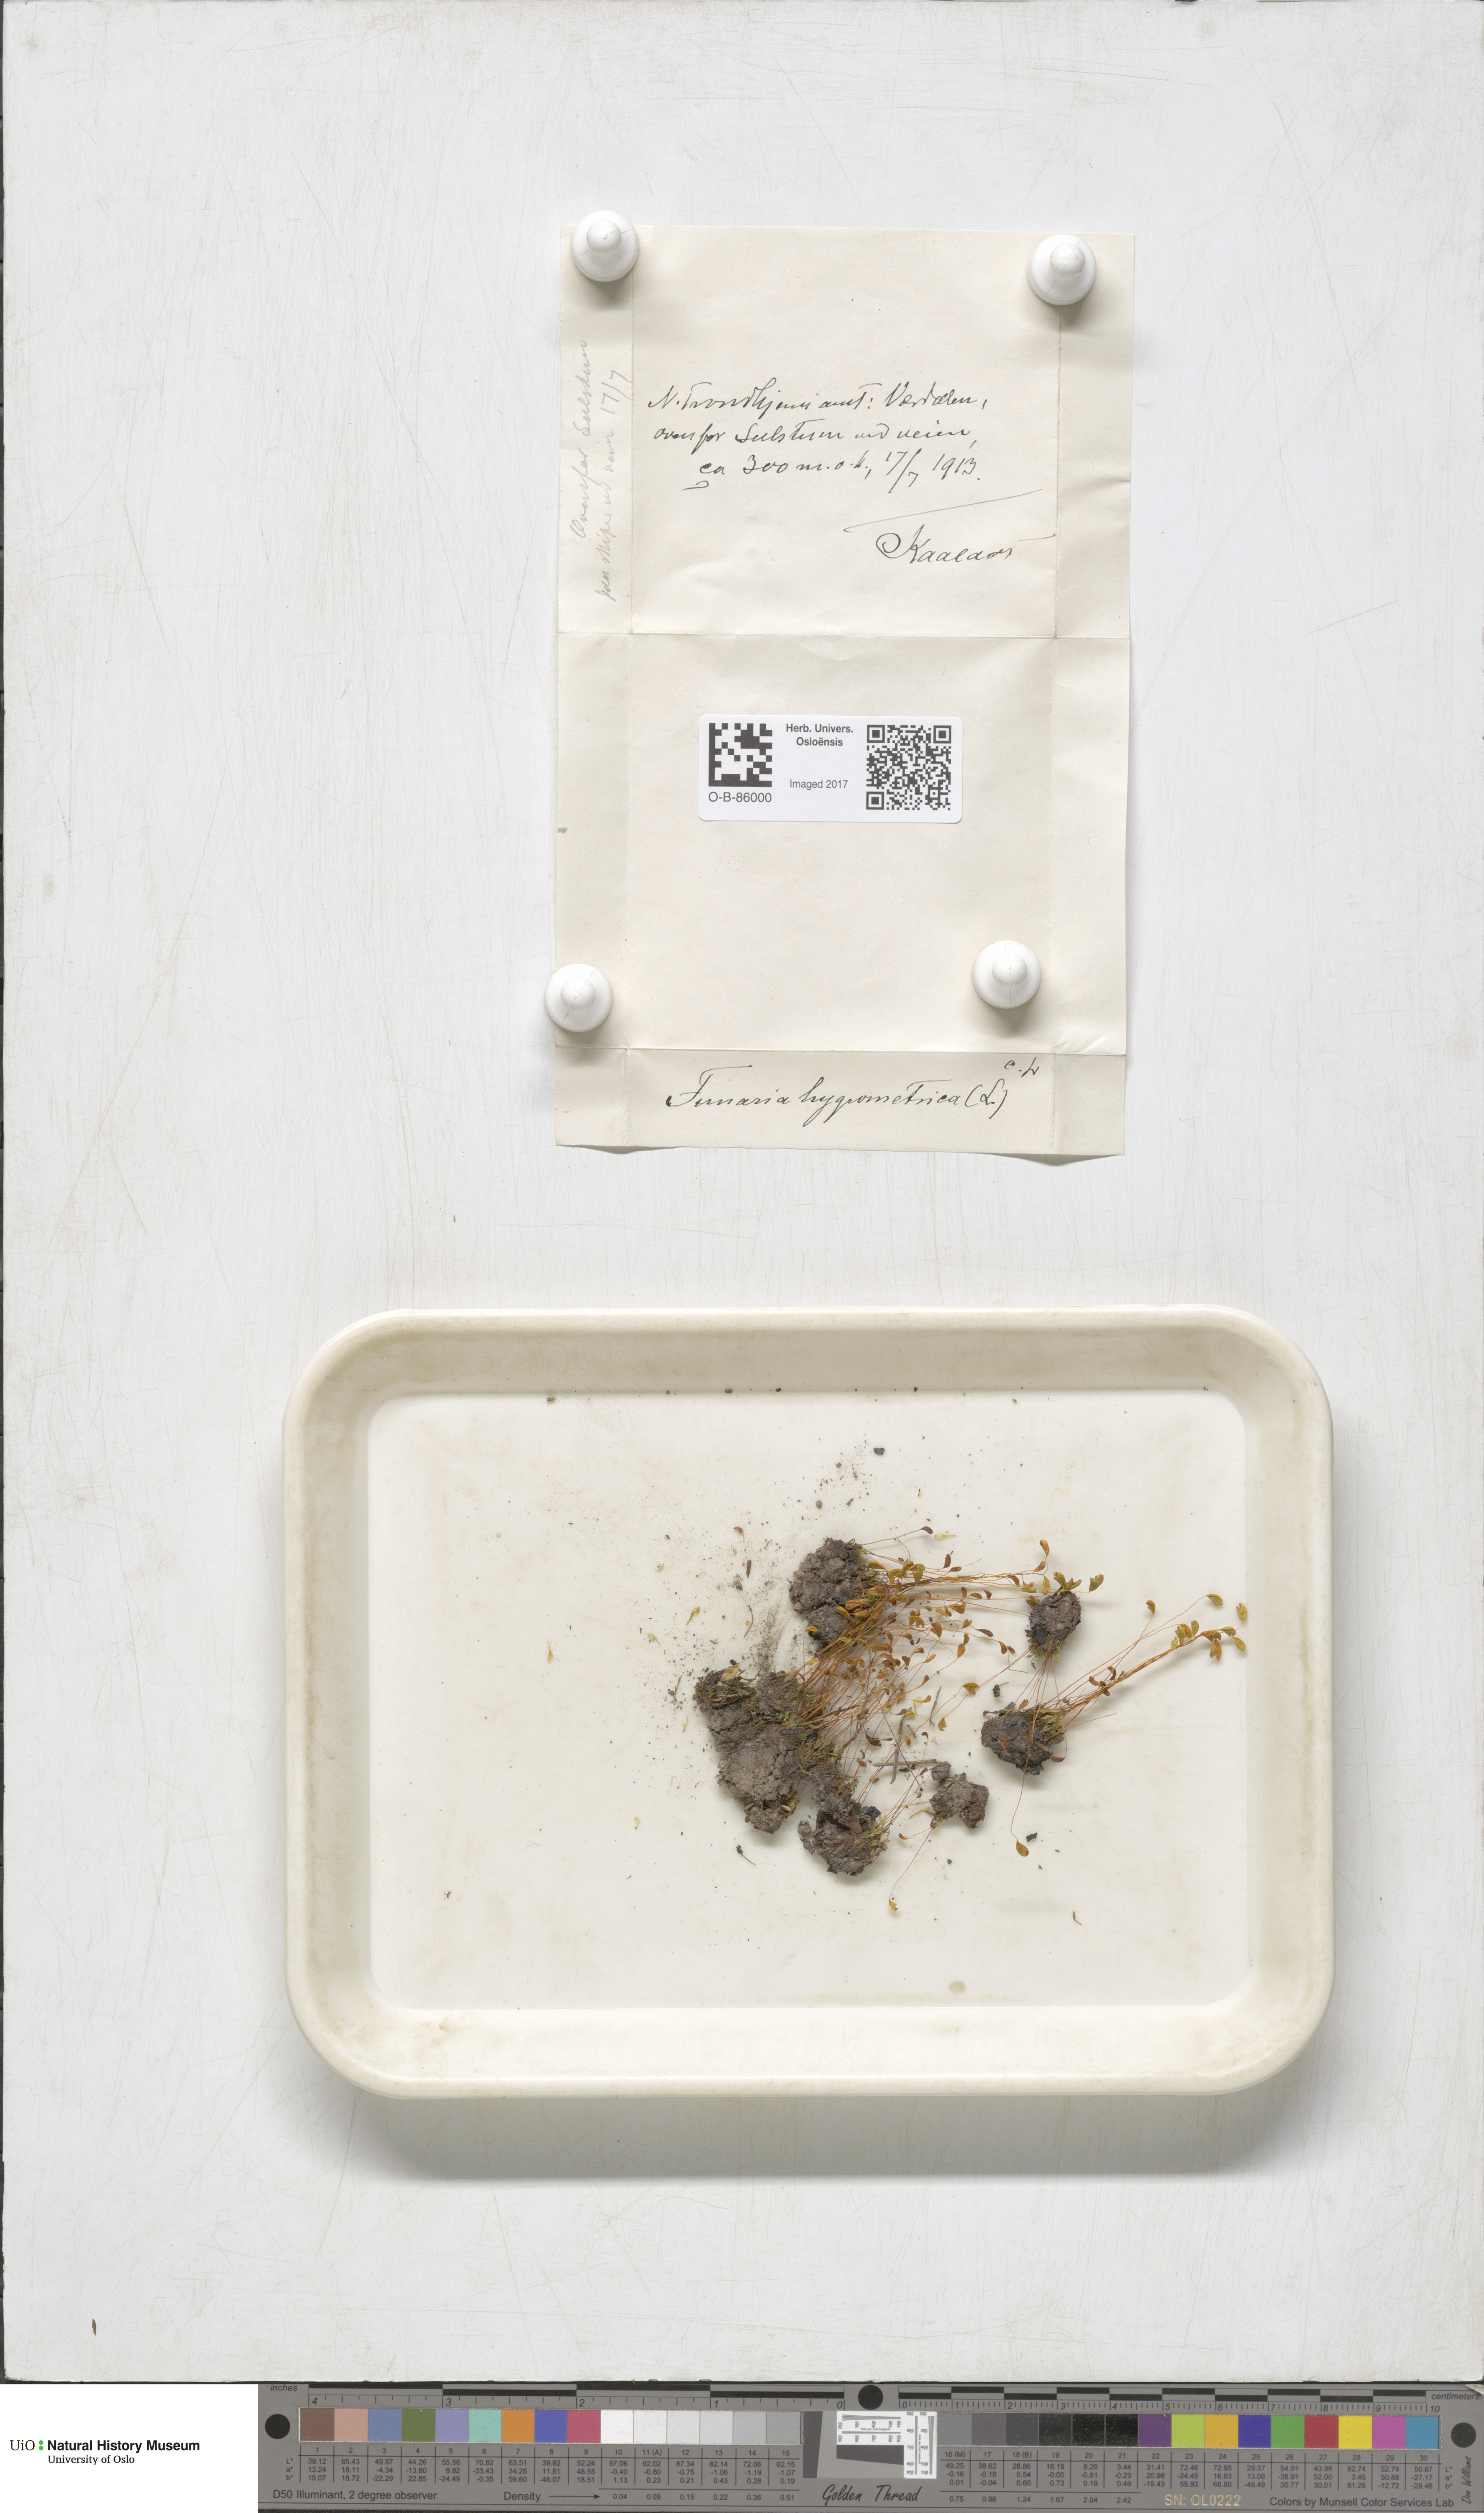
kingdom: Plantae
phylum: Bryophyta
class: Bryopsida
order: Funariales
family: Funariaceae
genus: Funaria
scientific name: Funaria hygrometrica
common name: Common cord moss
